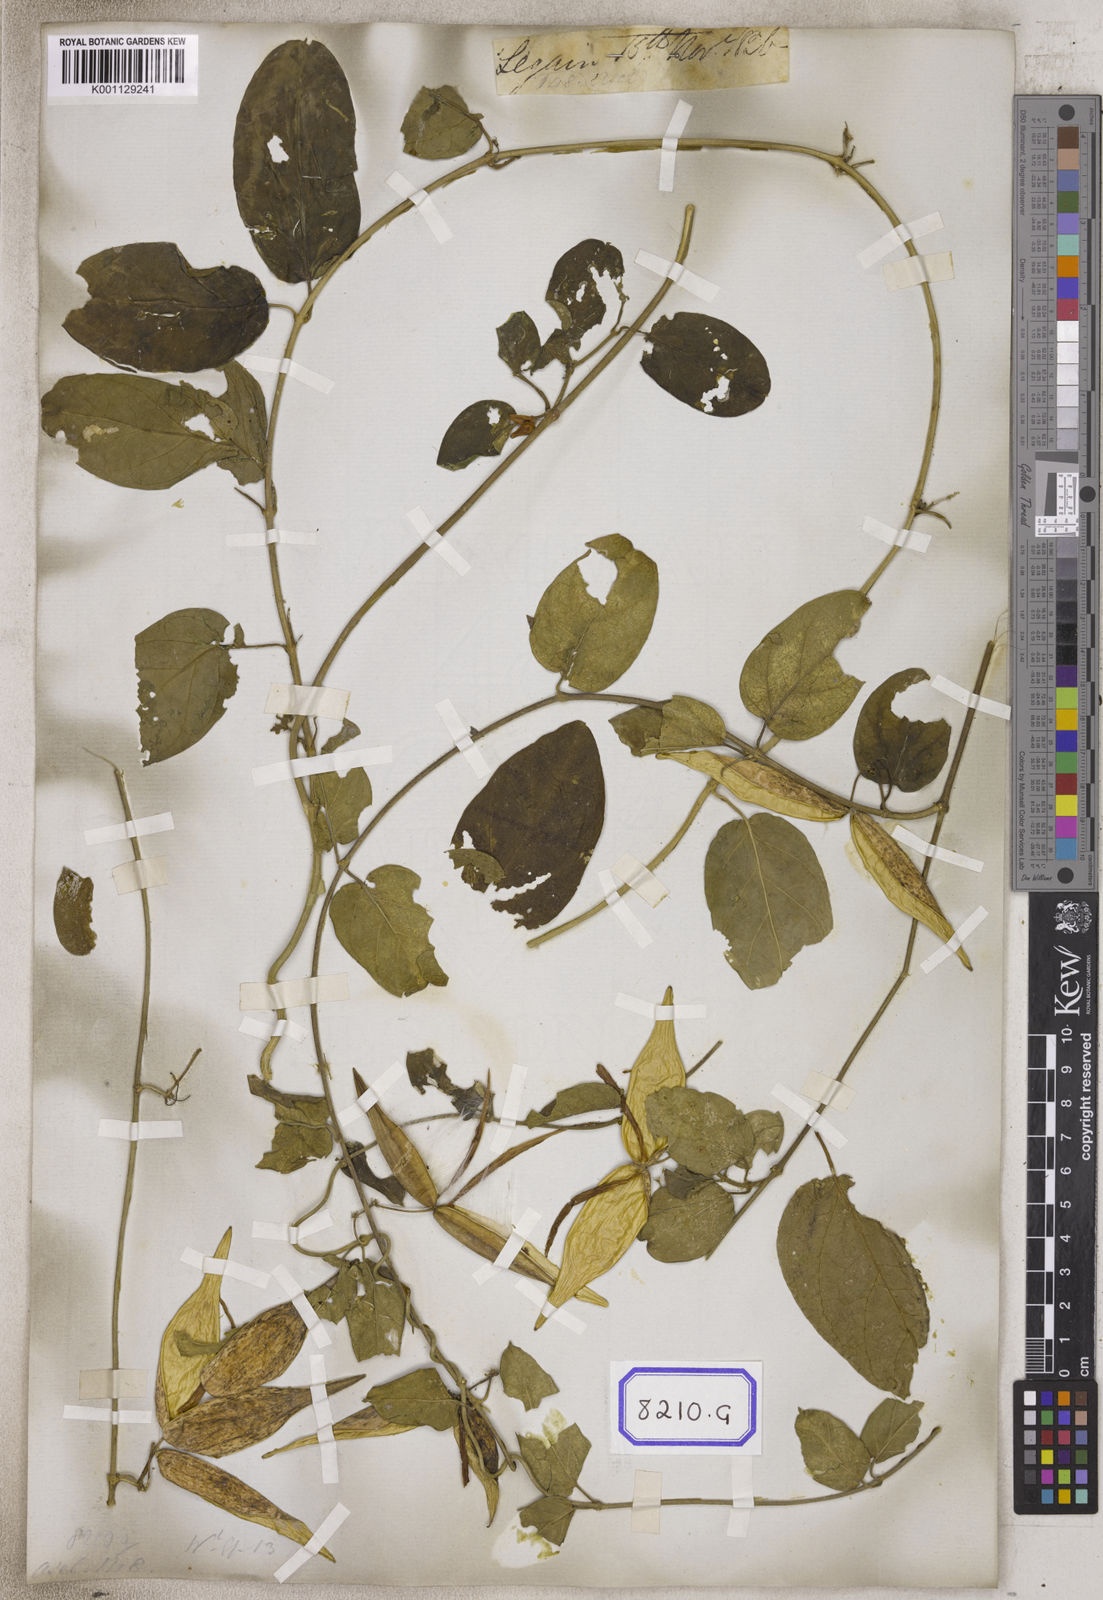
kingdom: Plantae
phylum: Tracheophyta
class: Magnoliopsida
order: Gentianales
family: Apocynaceae
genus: Vincetoxicum
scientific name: Vincetoxicum indicum
